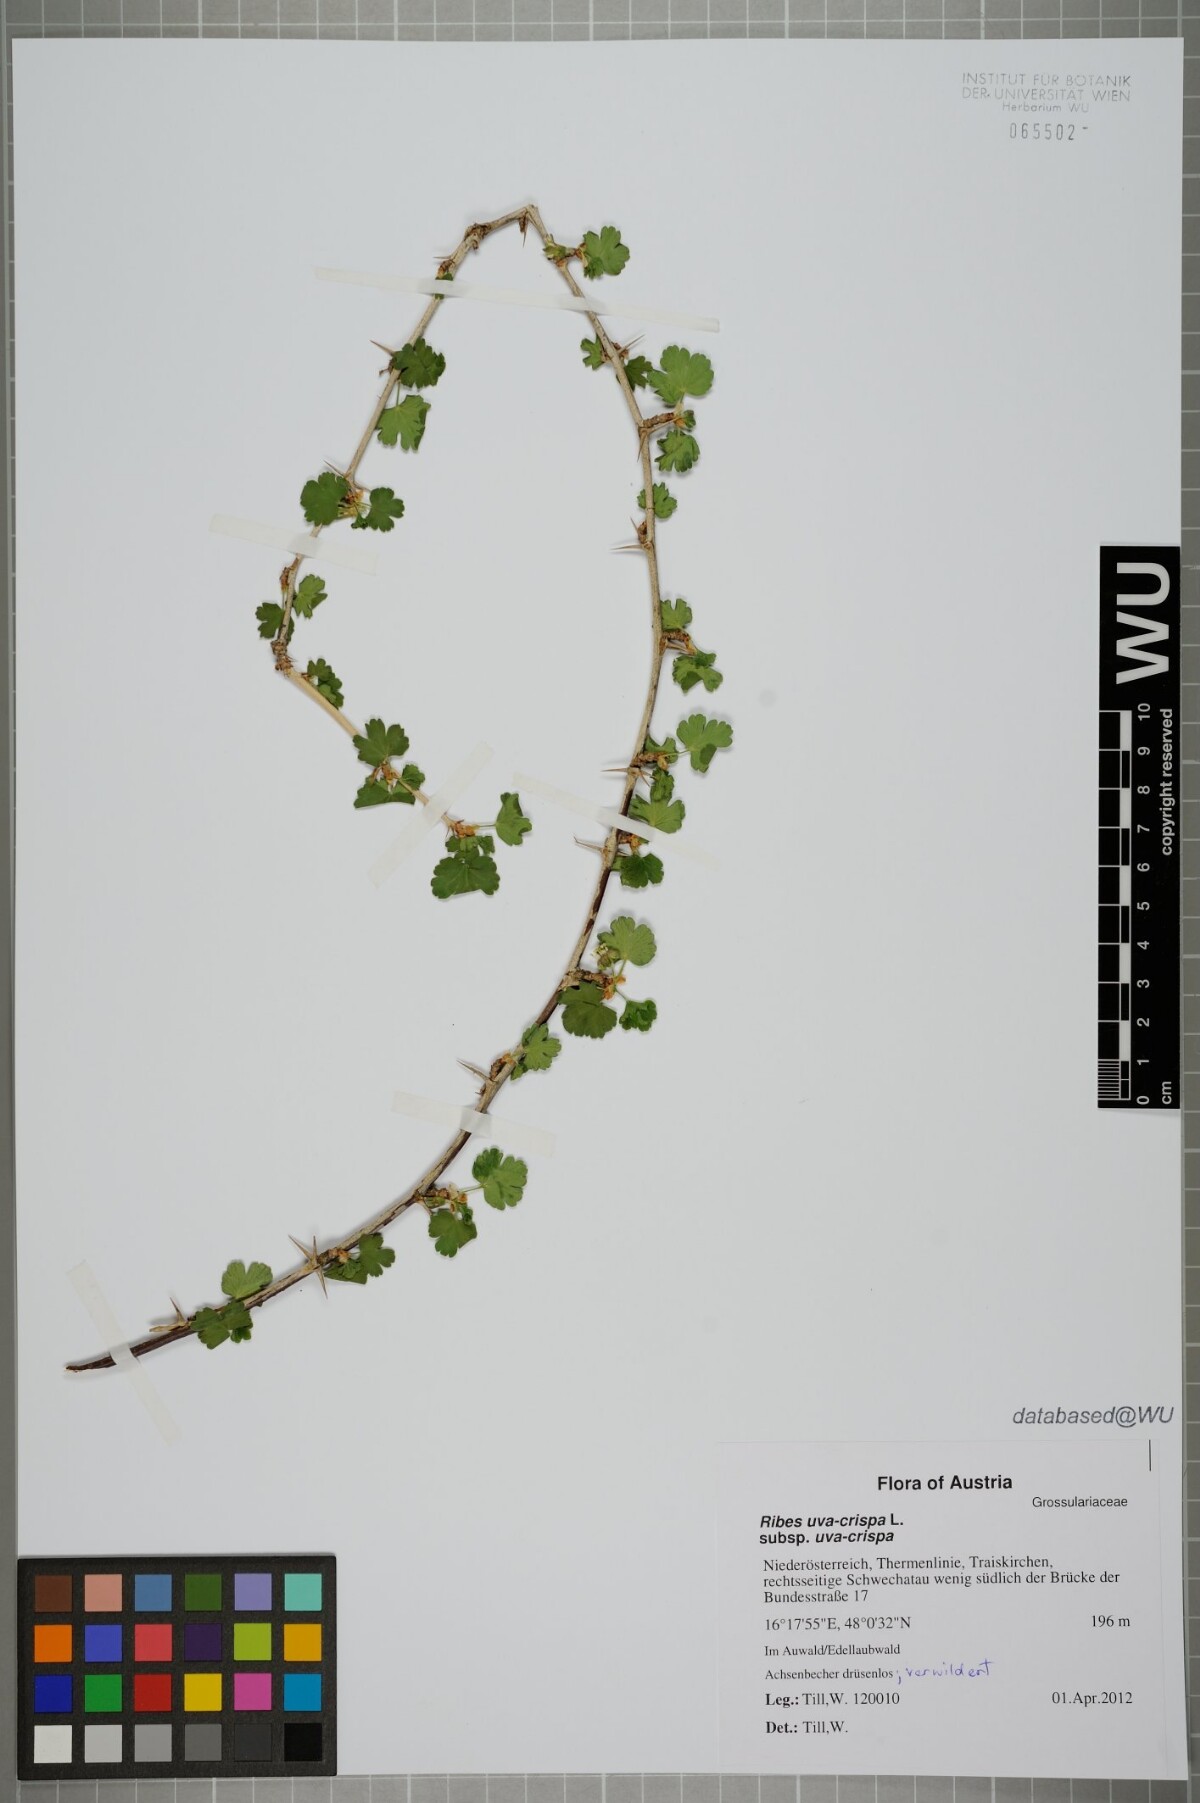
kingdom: Plantae
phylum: Tracheophyta
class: Magnoliopsida
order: Saxifragales
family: Grossulariaceae
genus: Ribes
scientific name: Ribes uva-crispa
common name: Gooseberry
